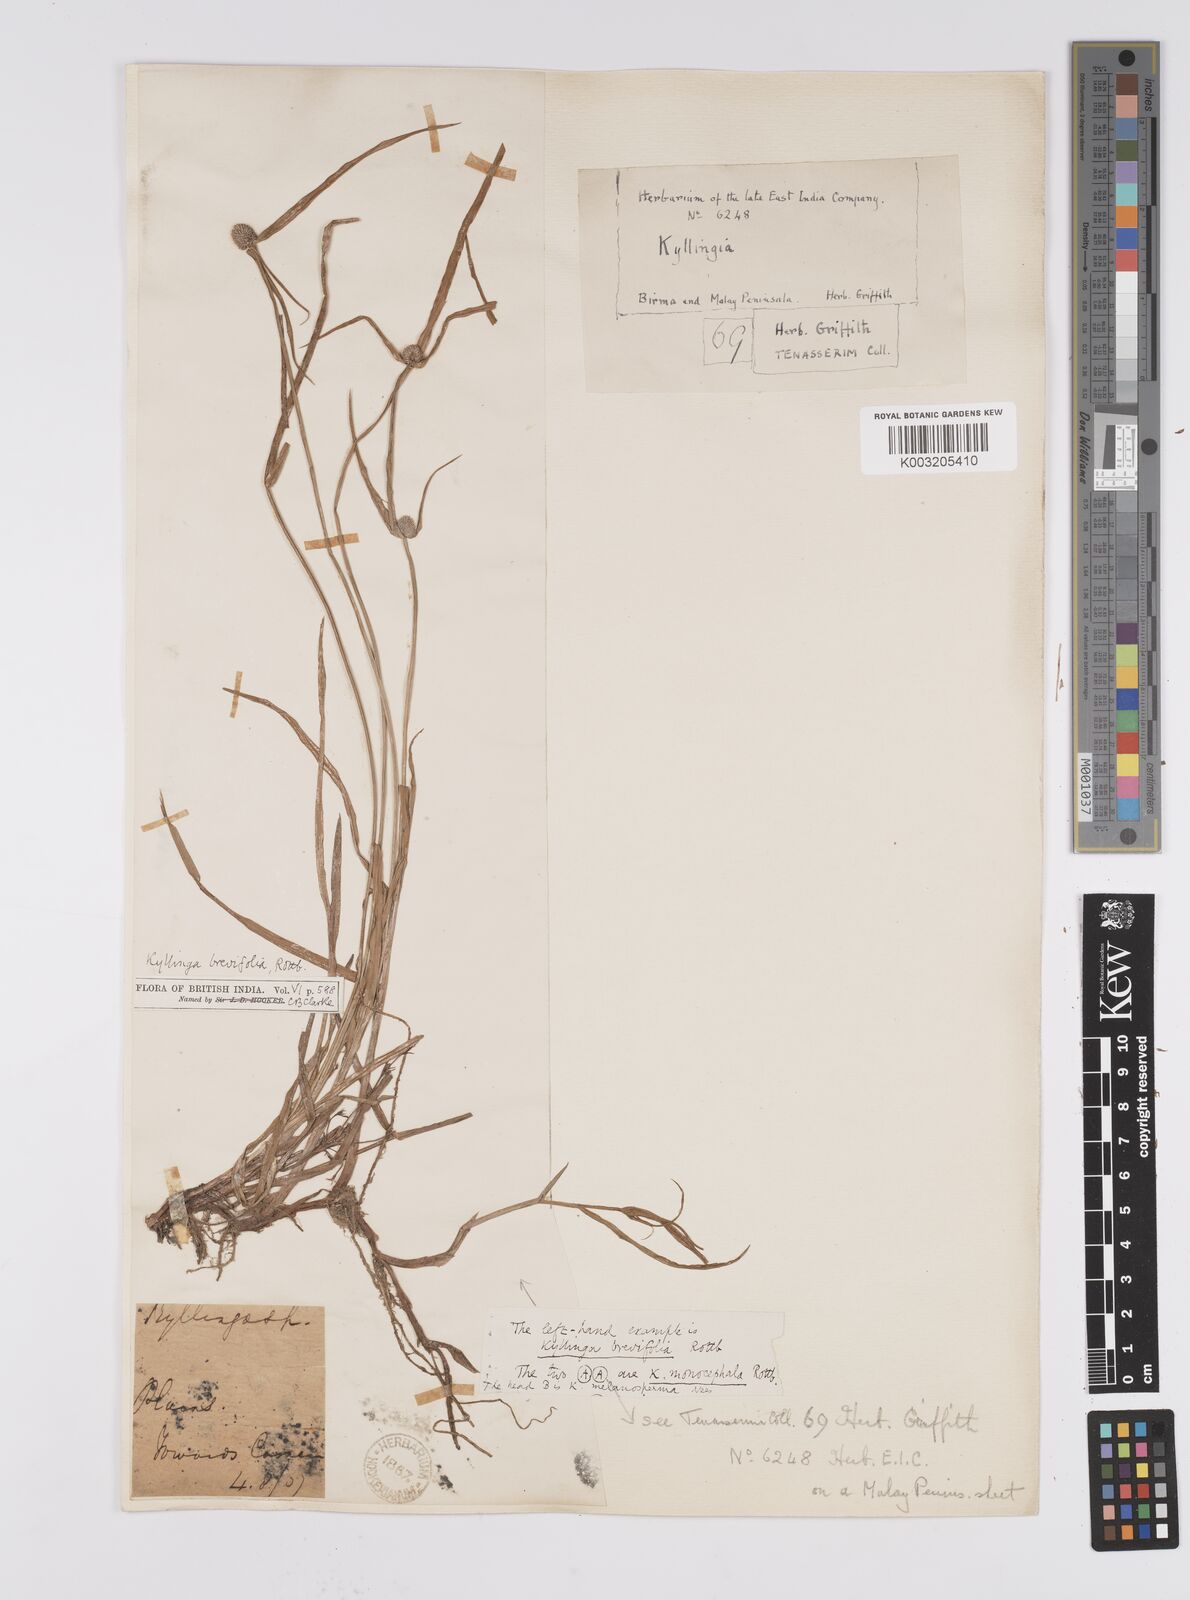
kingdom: Plantae
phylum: Tracheophyta
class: Liliopsida
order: Poales
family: Cyperaceae
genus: Cyperus
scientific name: Cyperus brevifolius
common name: Globe kyllinga
